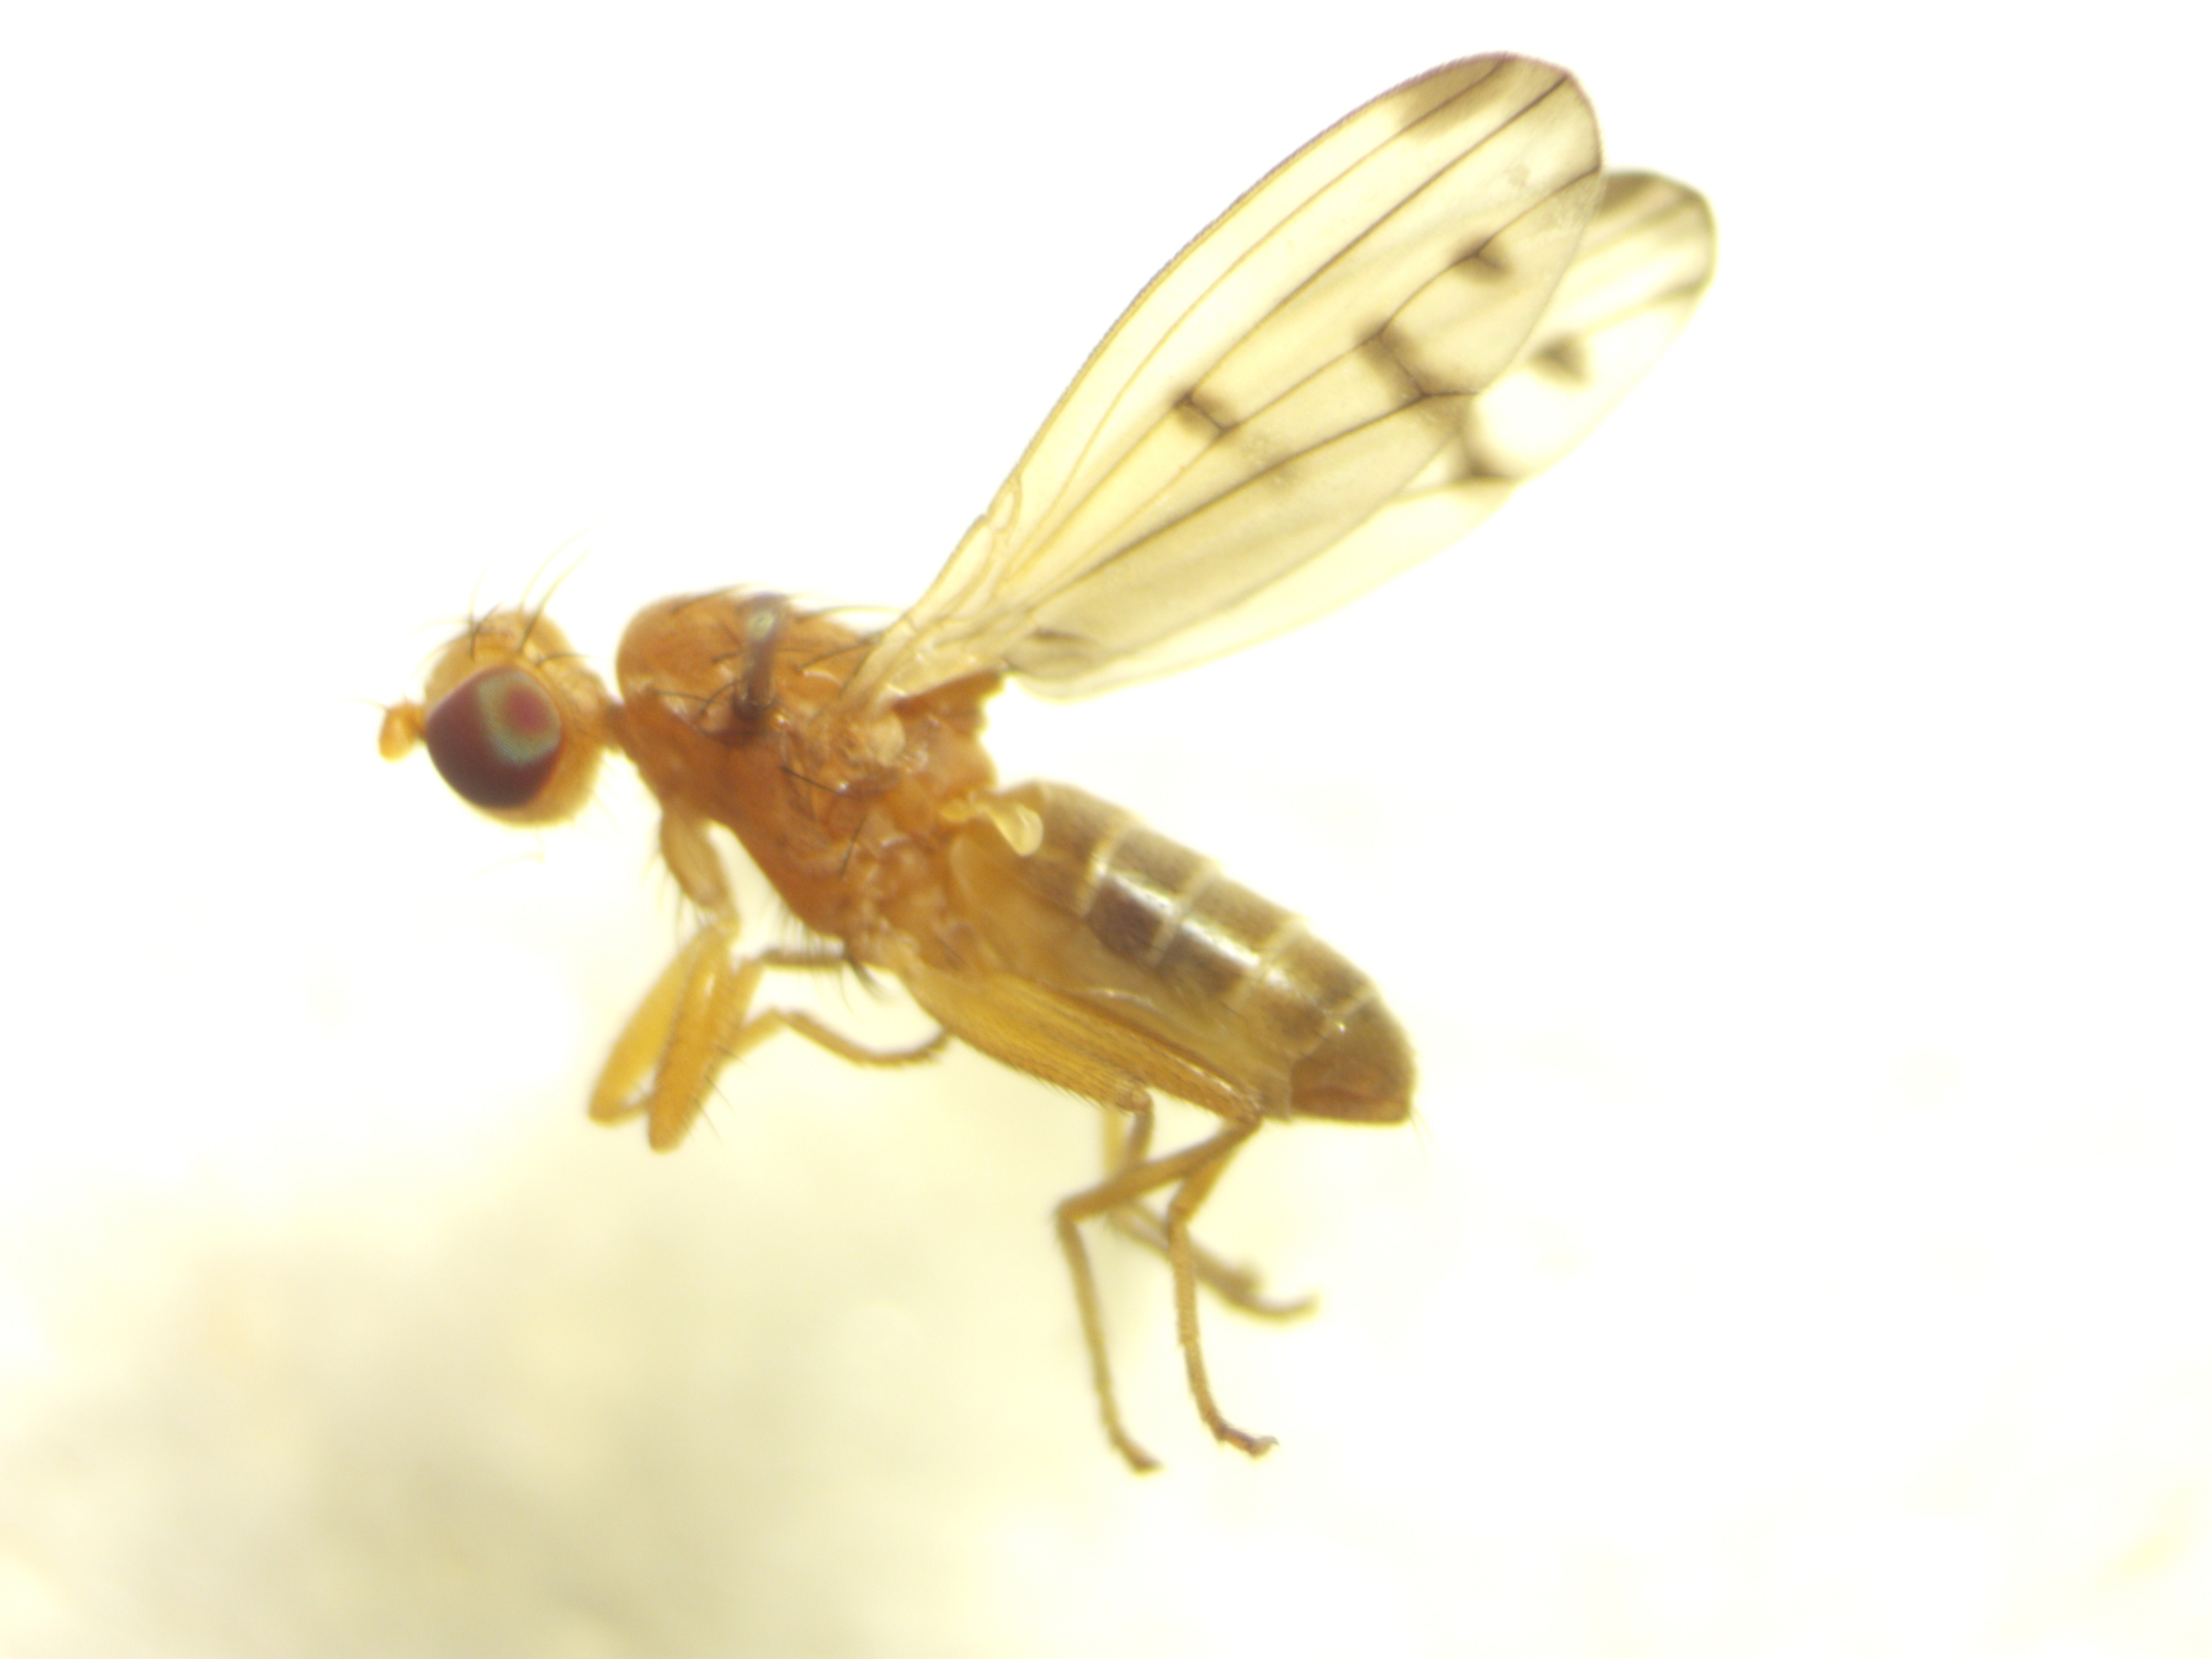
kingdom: Animalia
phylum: Arthropoda
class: Insecta
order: Diptera
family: Opomyzidae
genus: Opomyza
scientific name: Opomyza florum
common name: Gul græsflue
